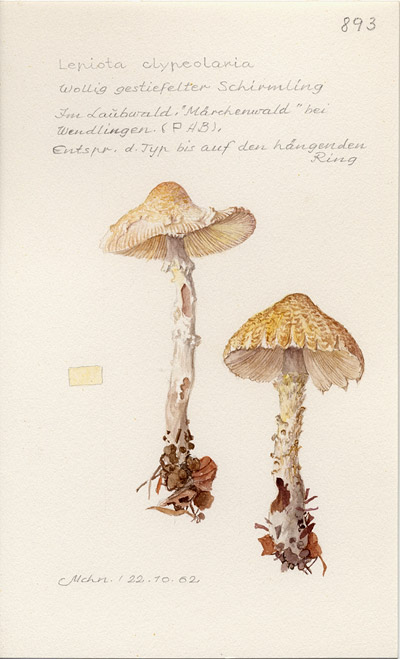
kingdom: Fungi
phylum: Basidiomycota
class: Agaricomycetes
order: Agaricales
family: Agaricaceae
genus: Lepiota
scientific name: Lepiota clypeolaria
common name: Shield dapperling
